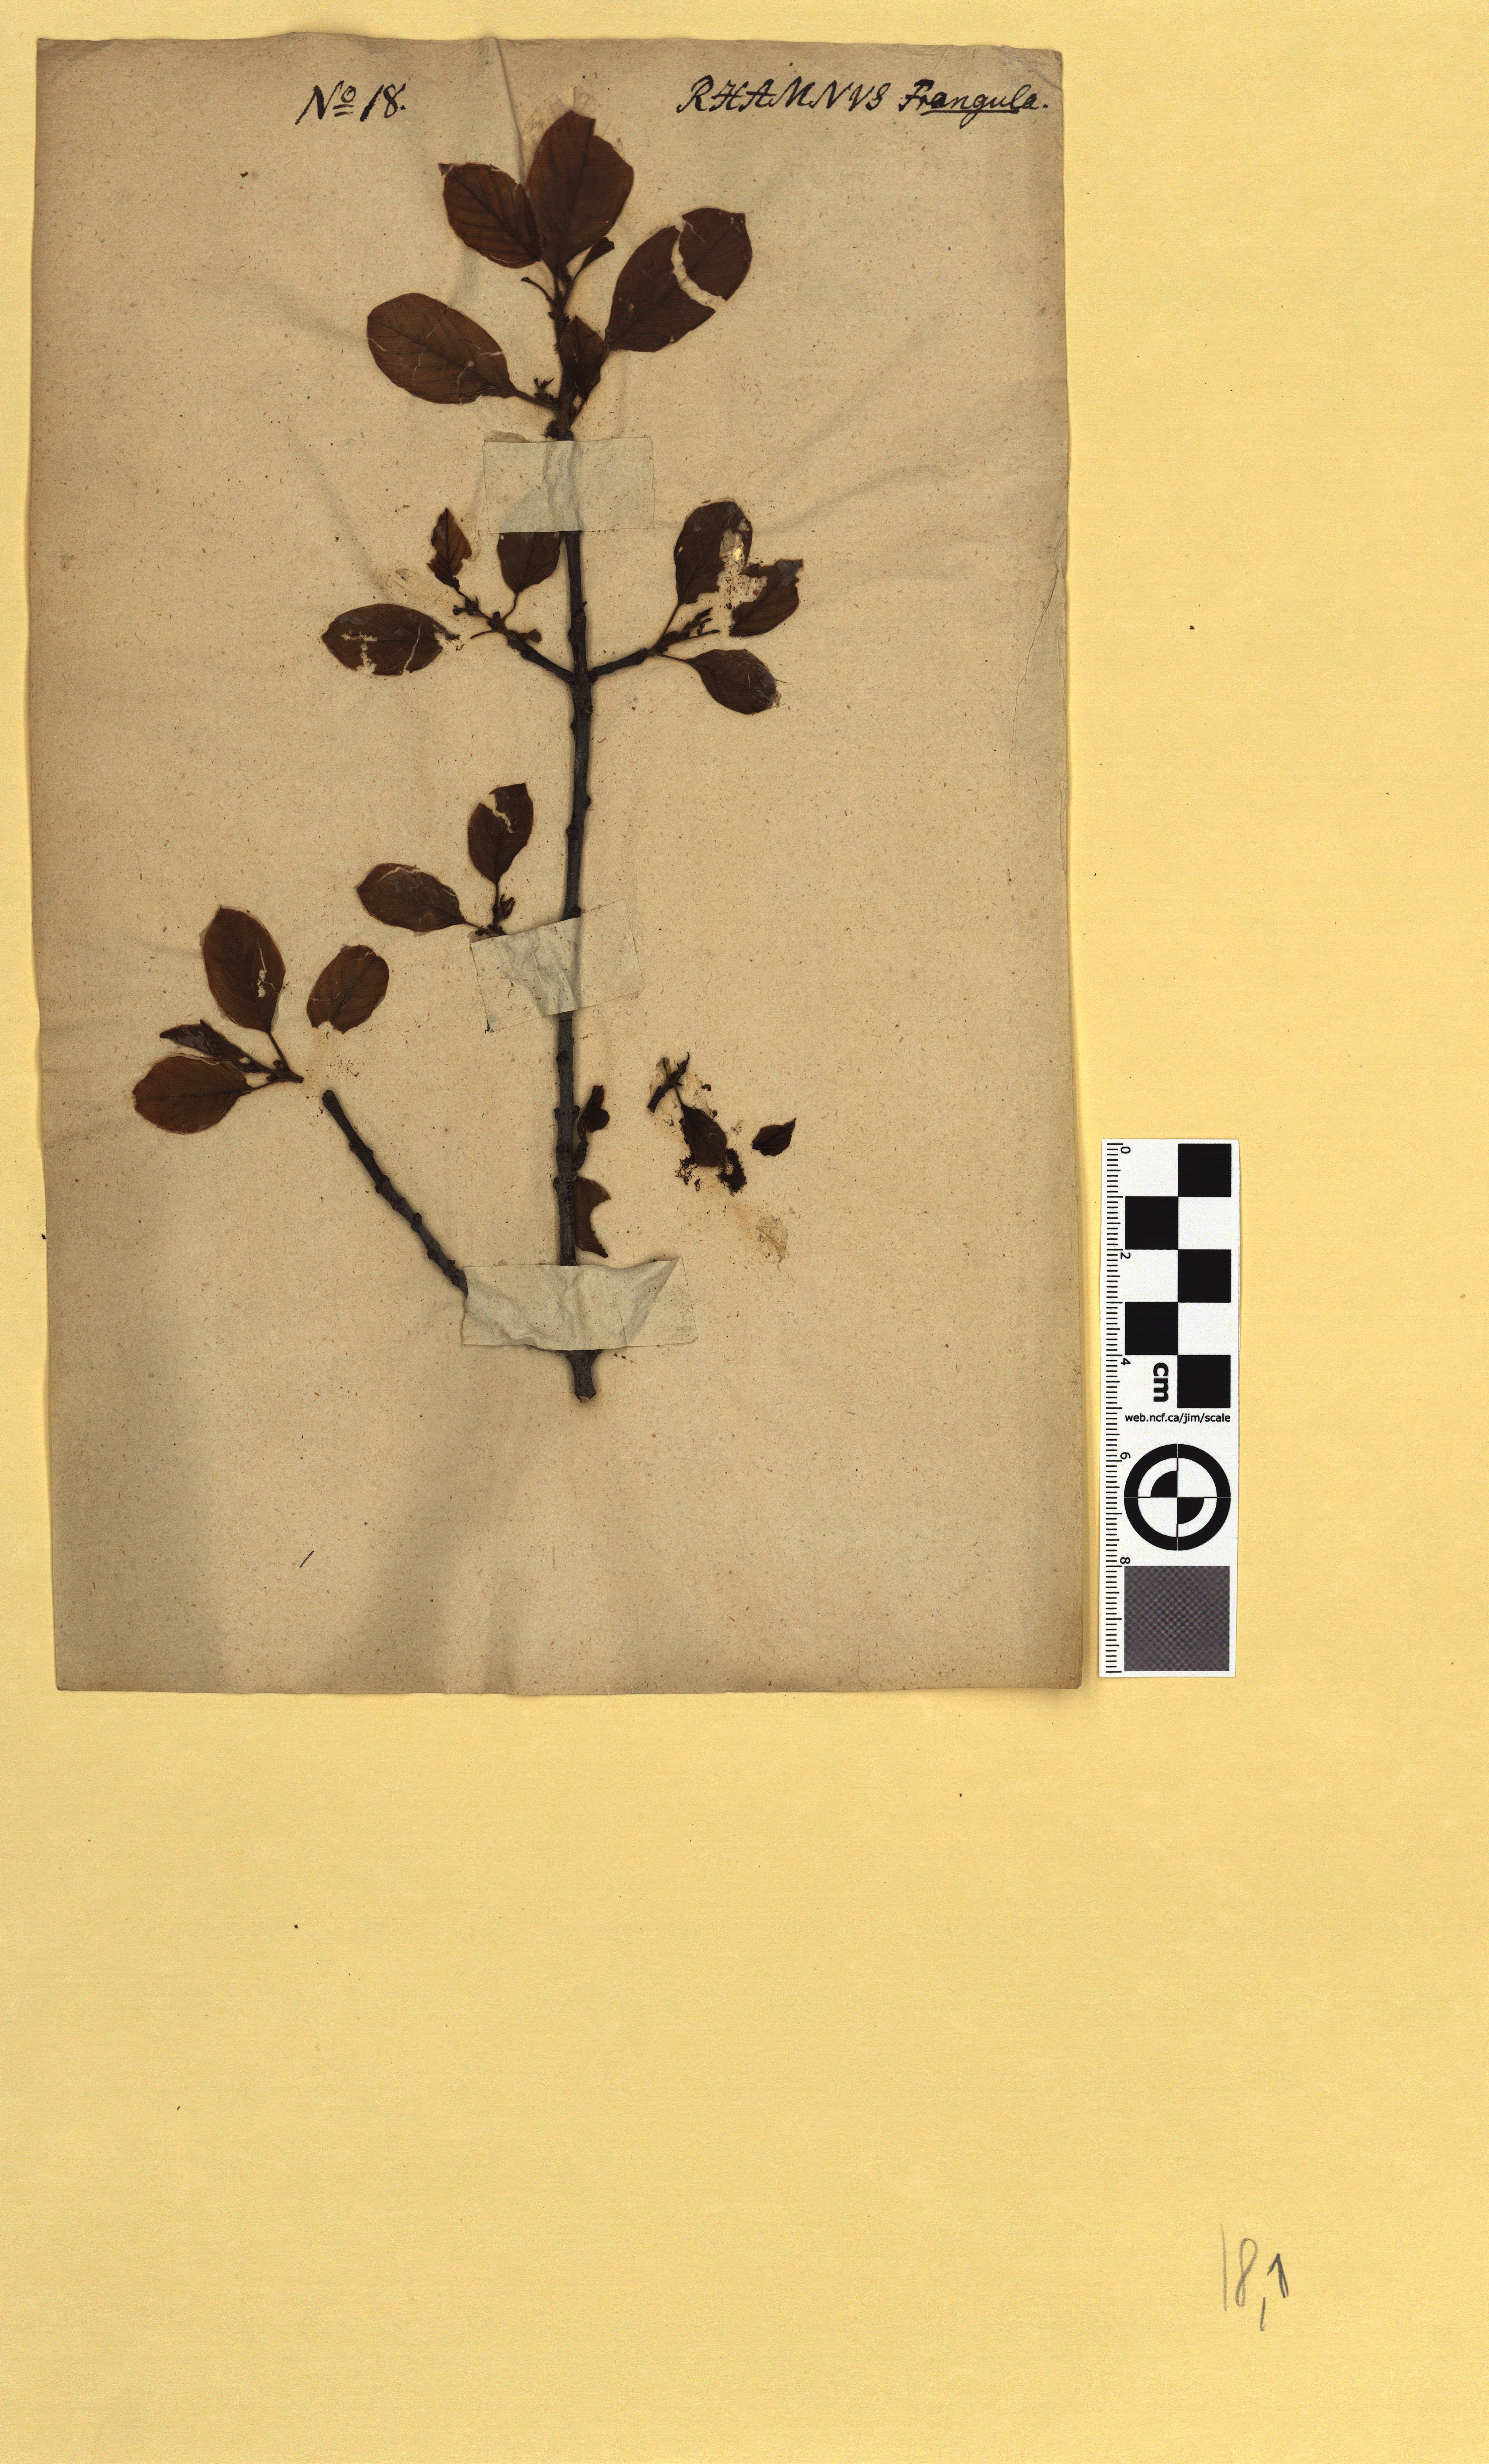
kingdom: Plantae
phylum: Tracheophyta
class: Magnoliopsida
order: Rosales
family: Rhamnaceae
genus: Frangula
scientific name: Frangula alnus
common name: Alder buckthorn
